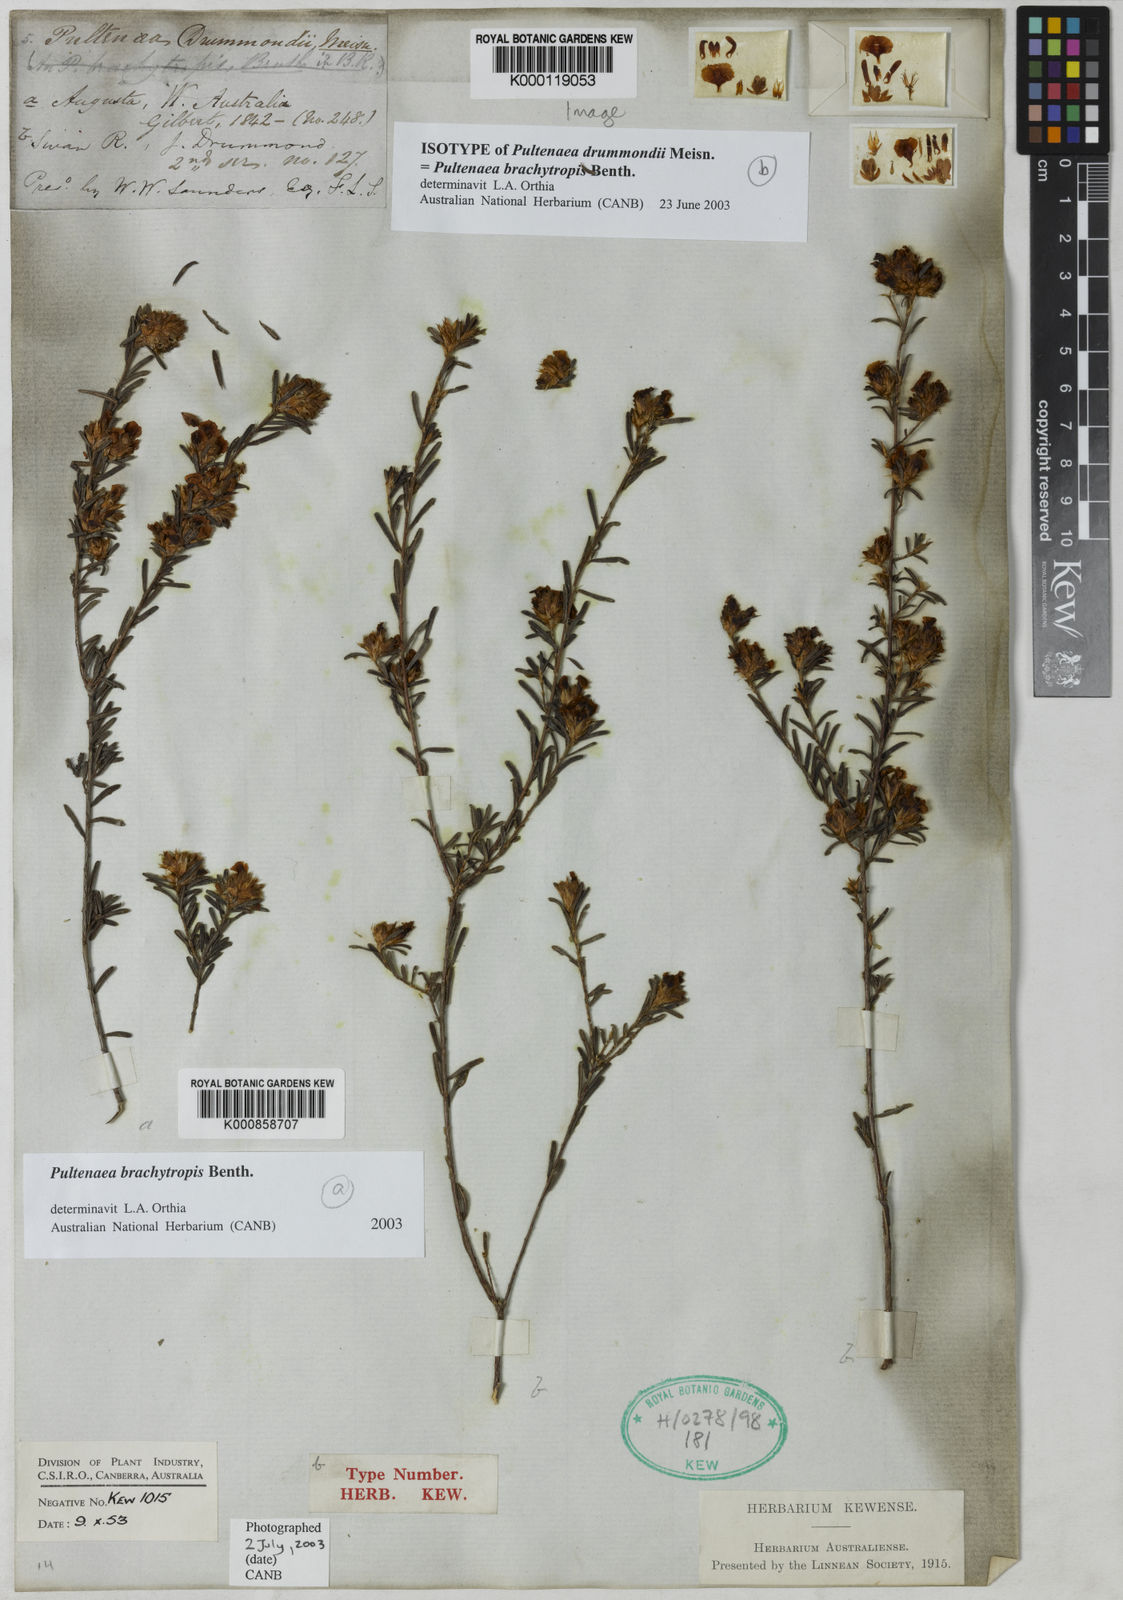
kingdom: Plantae
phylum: Tracheophyta
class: Magnoliopsida
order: Fabales
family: Fabaceae
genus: Pultenaea
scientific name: Pultenaea brachytropis
